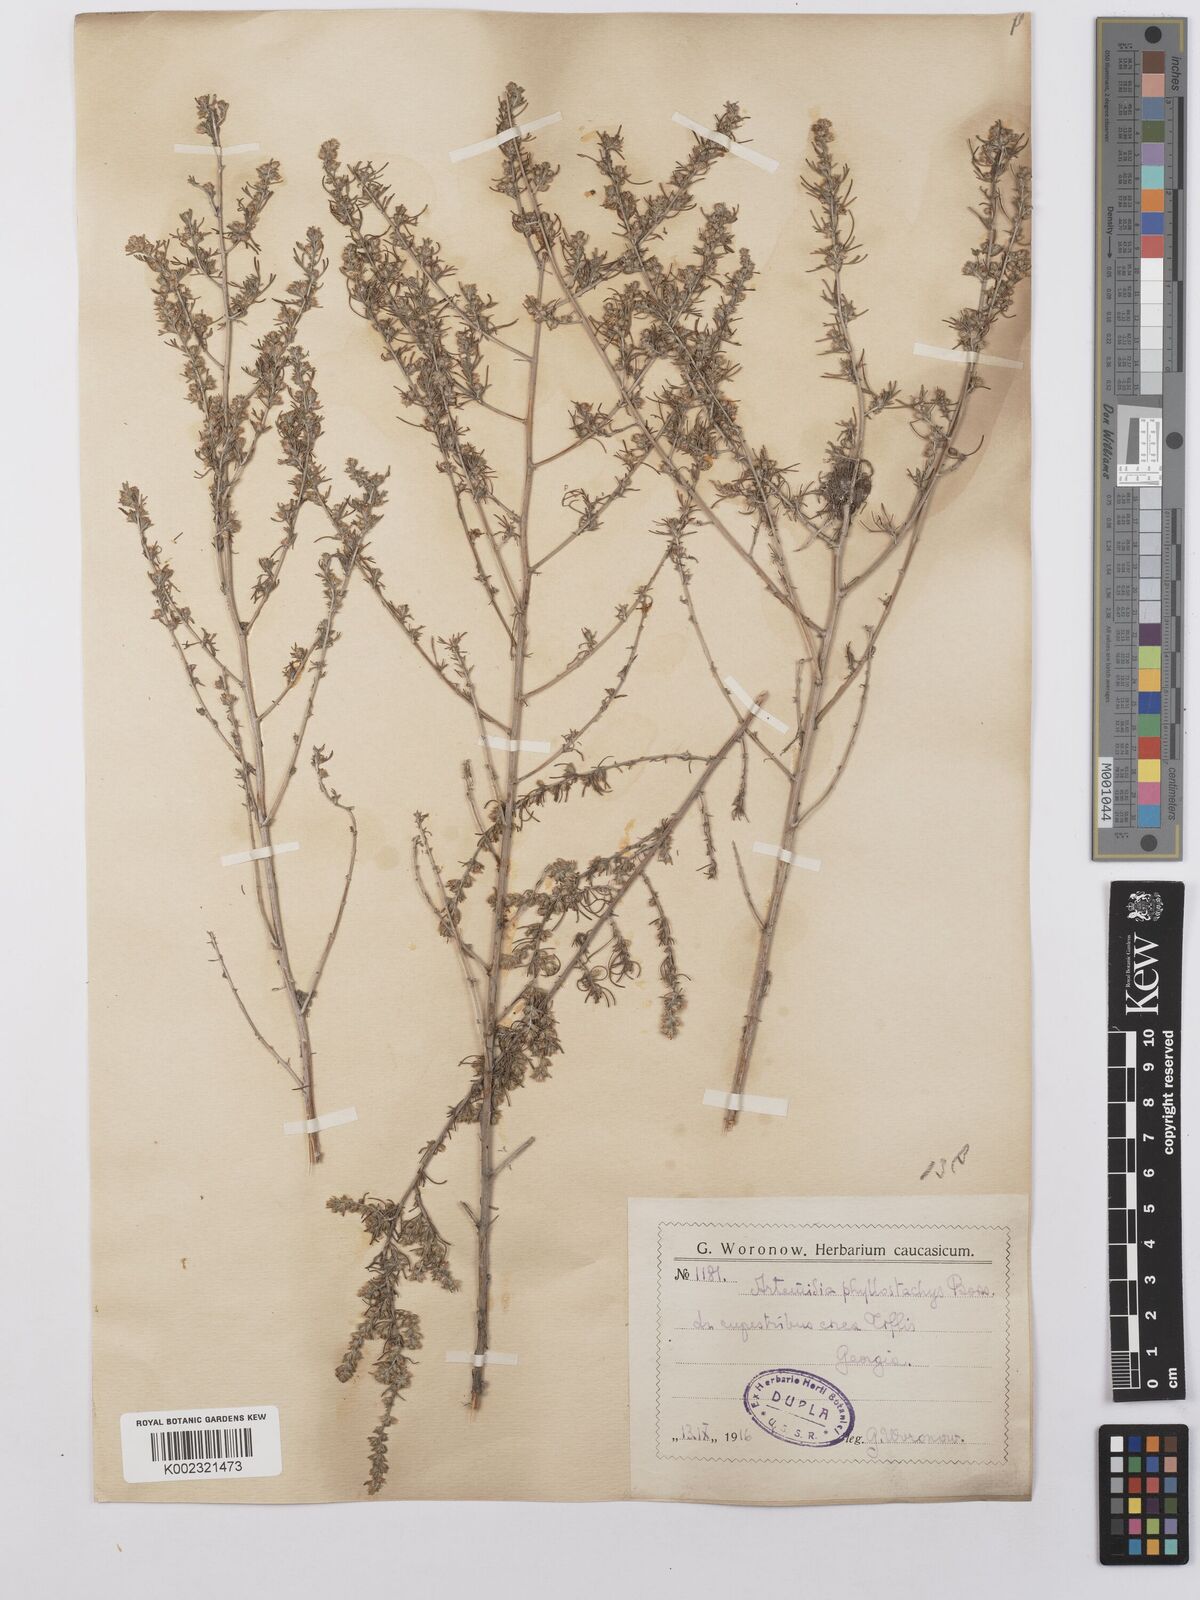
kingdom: Plantae
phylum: Tracheophyta
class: Magnoliopsida
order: Asterales
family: Asteraceae
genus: Artemisia
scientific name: Artemisia fragrans
